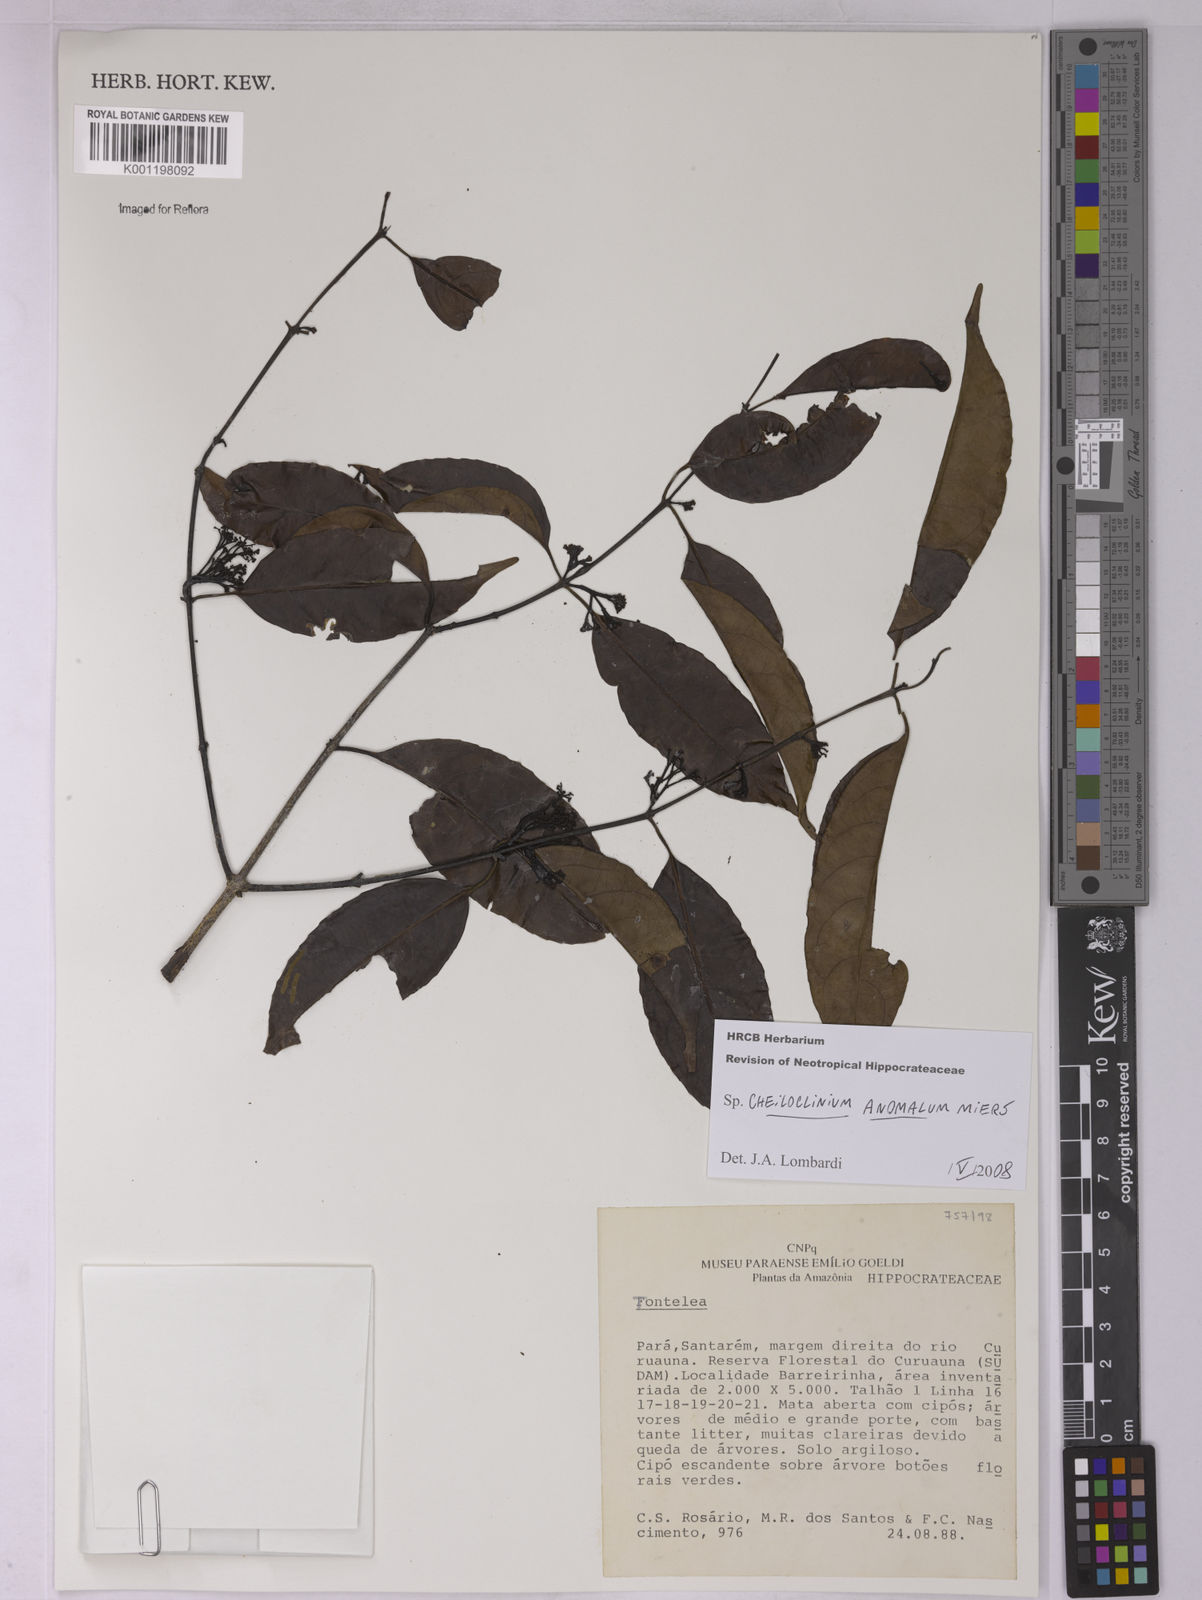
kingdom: Plantae
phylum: Tracheophyta
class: Magnoliopsida
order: Celastrales
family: Celastraceae
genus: Cheiloclinium
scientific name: Cheiloclinium anomalum
